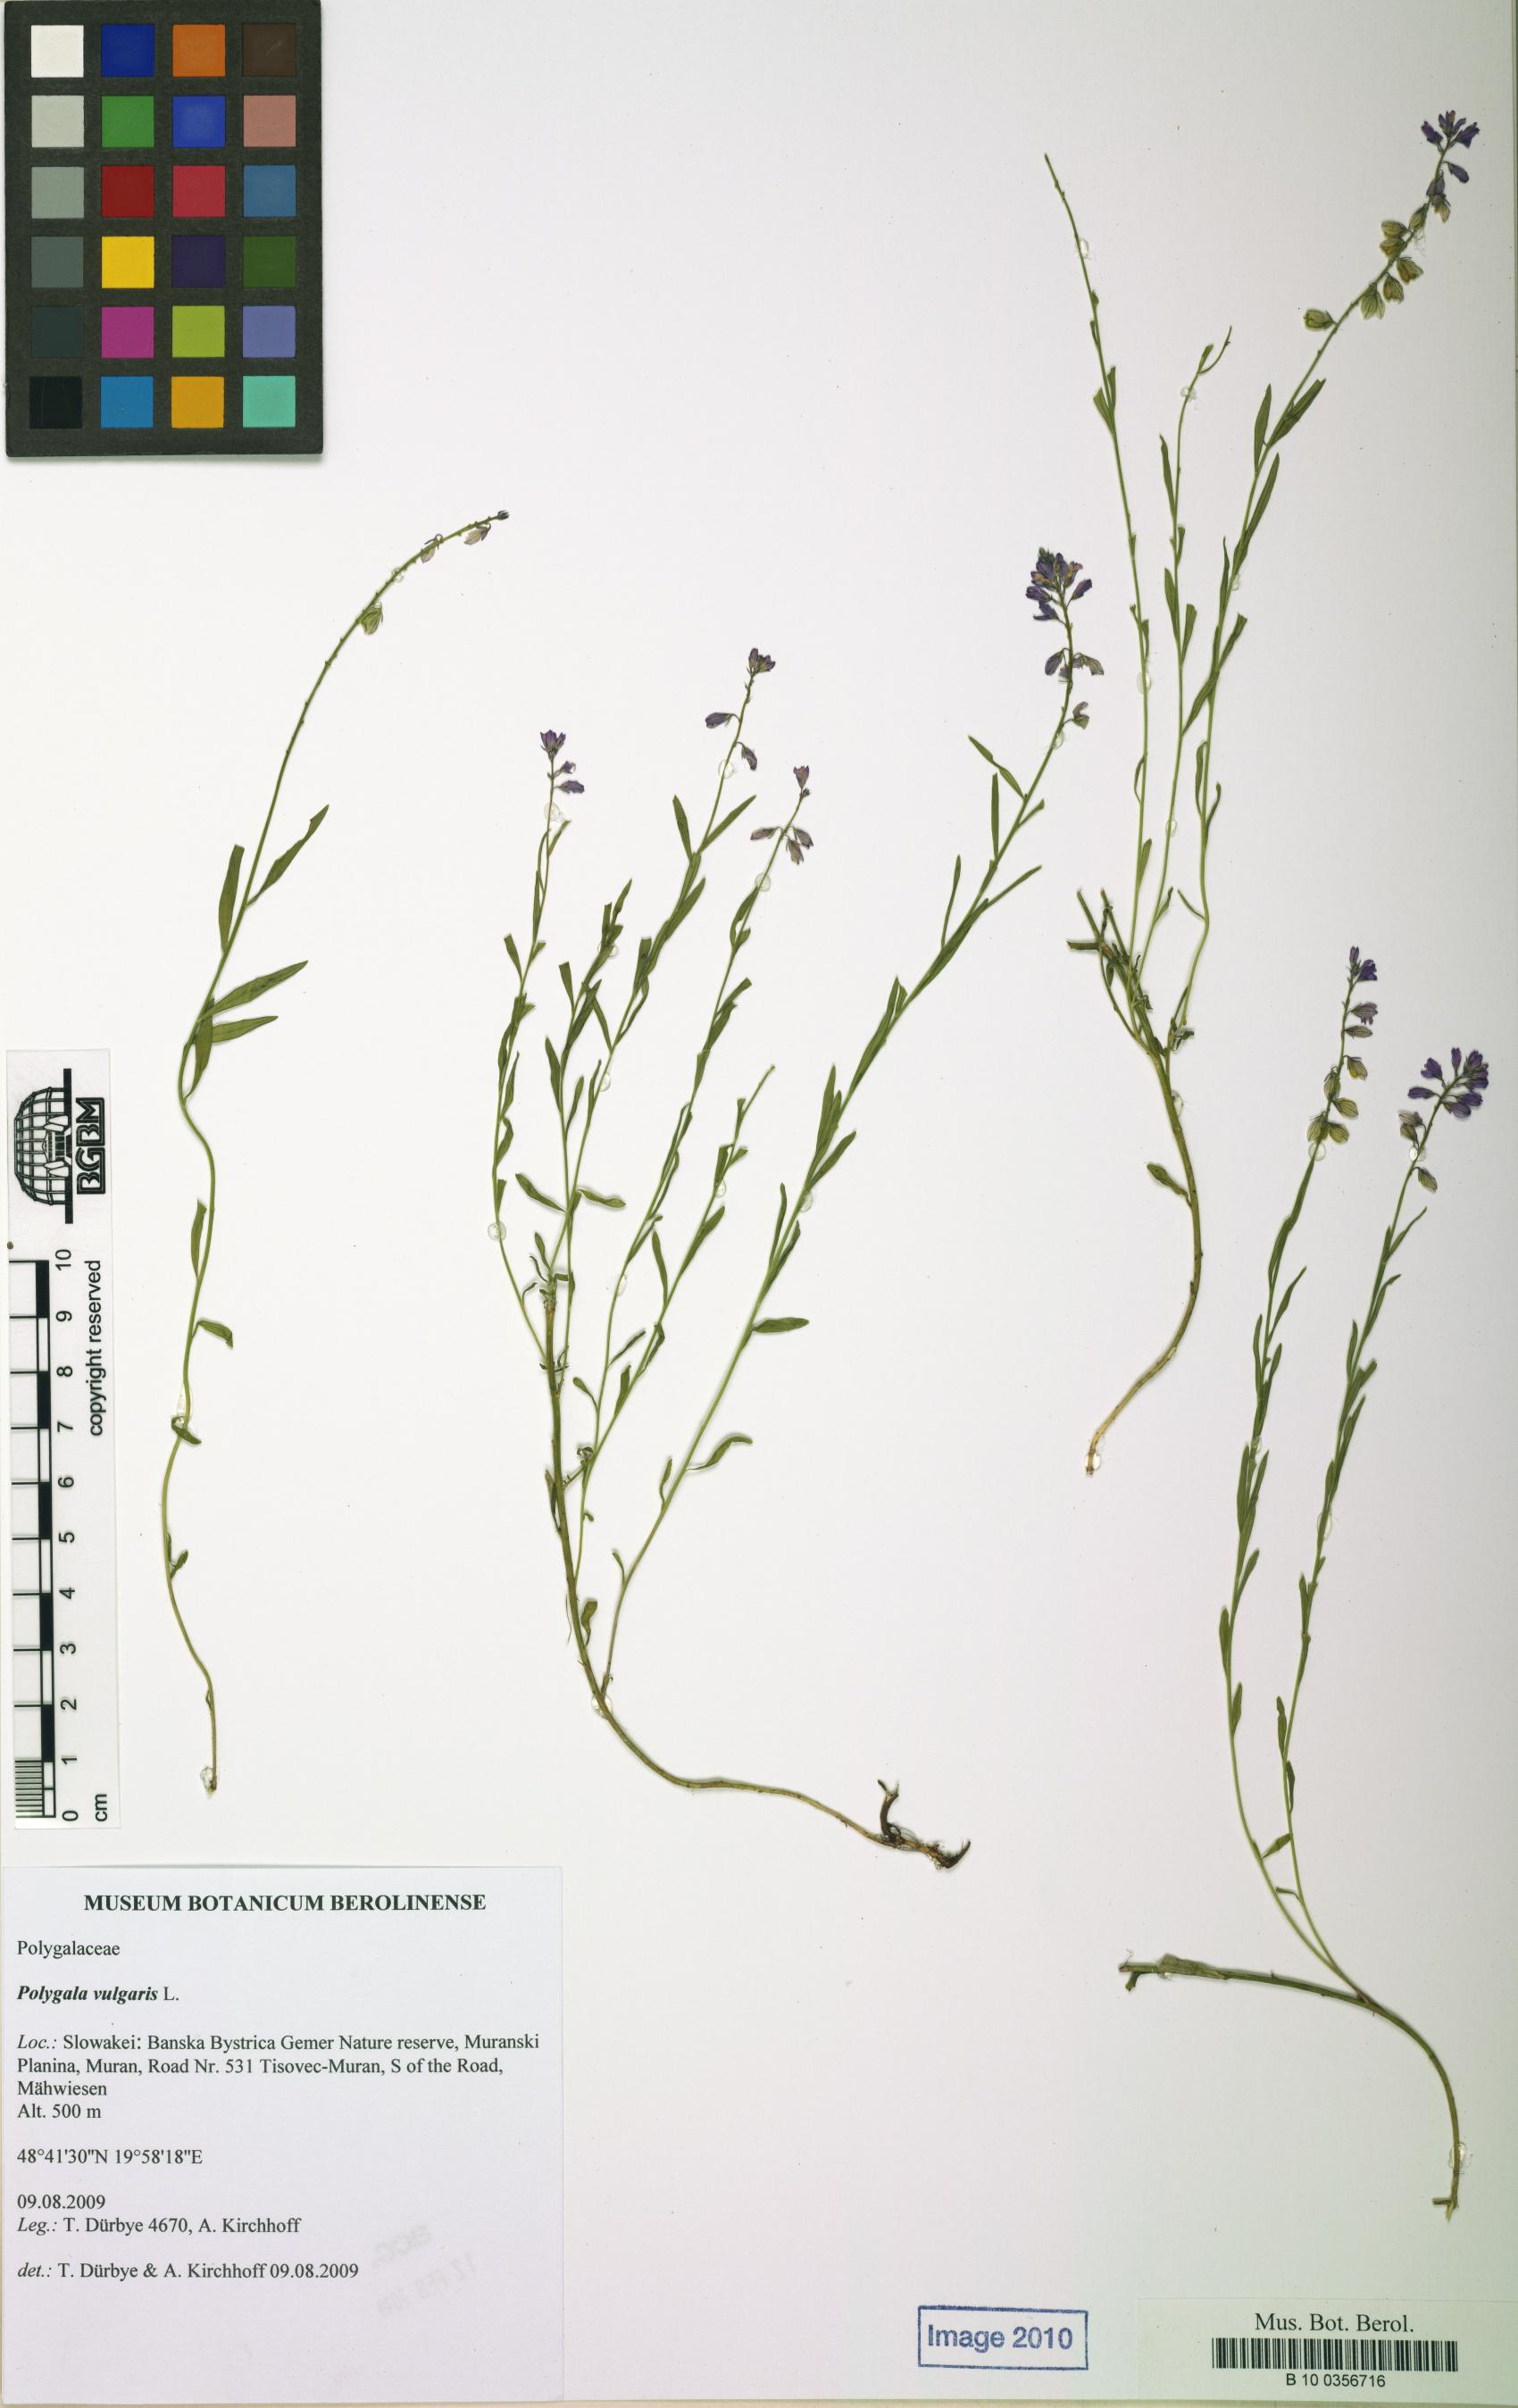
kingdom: Plantae
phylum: Tracheophyta
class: Magnoliopsida
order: Fabales
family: Polygalaceae
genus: Polygala
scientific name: Polygala vulgaris
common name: Common milkwort
